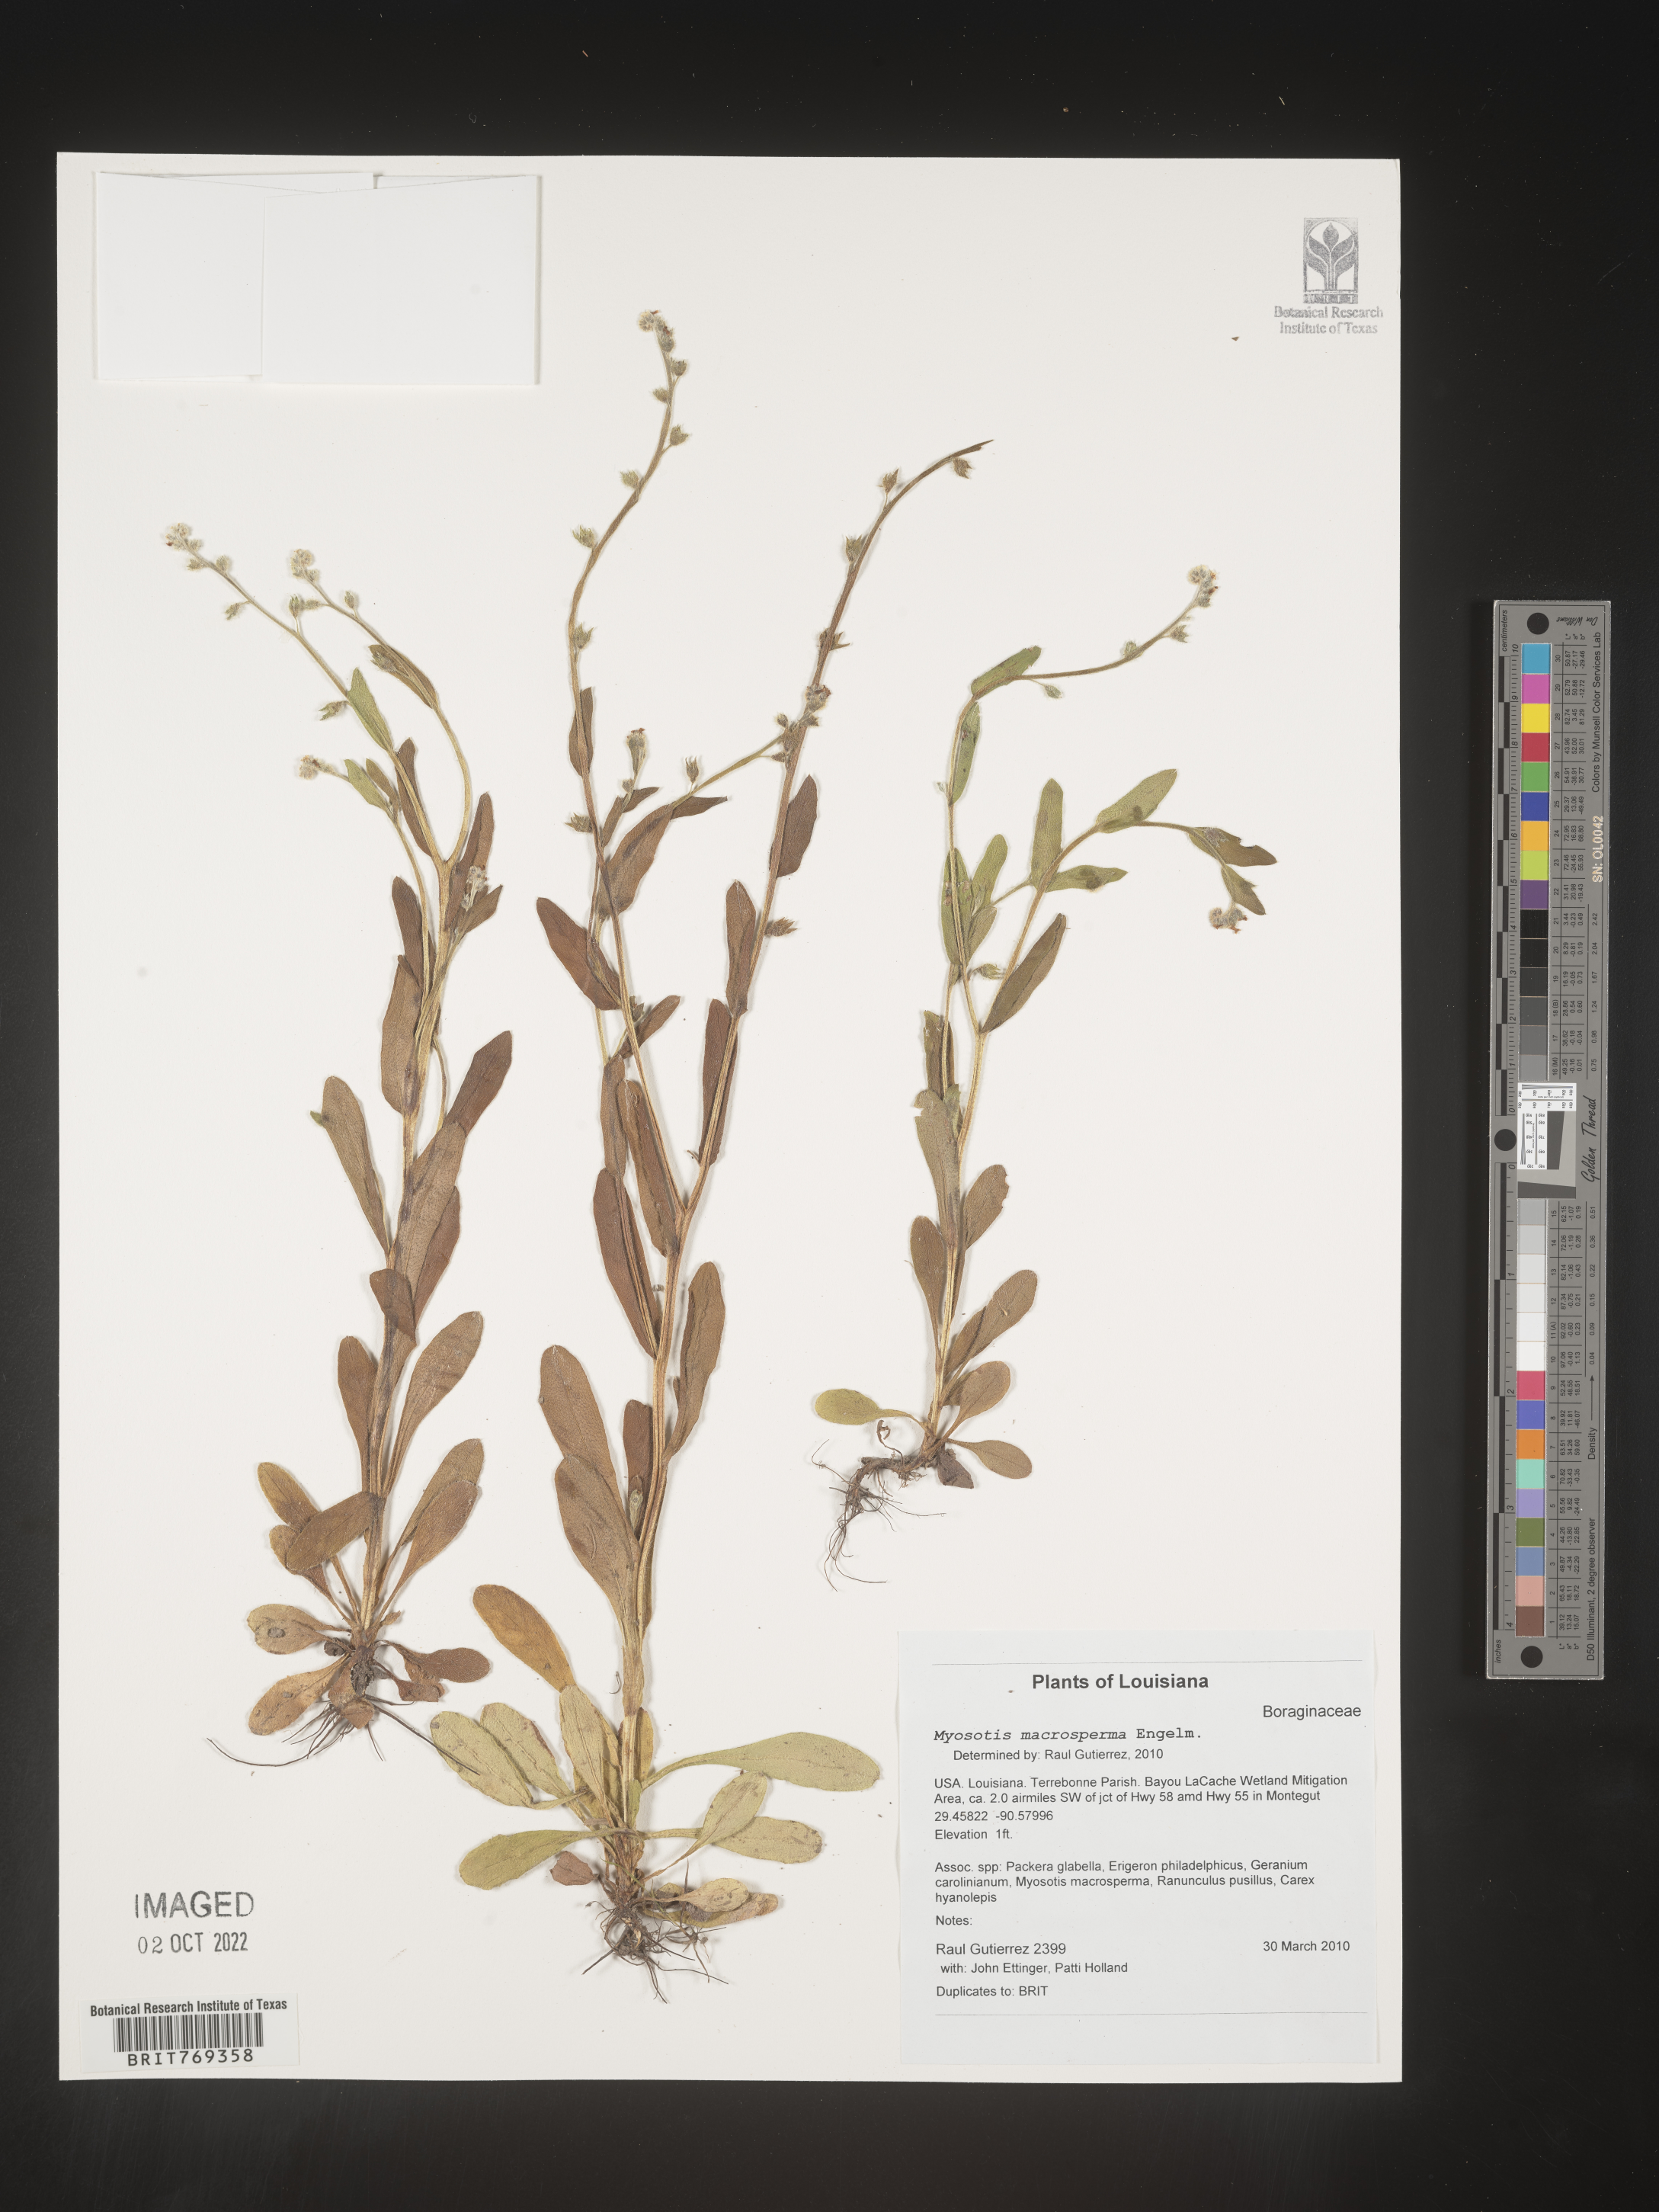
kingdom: Plantae
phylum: Tracheophyta
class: Magnoliopsida
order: Boraginales
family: Boraginaceae
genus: Myosotis
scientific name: Myosotis macrosperma
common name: Large-seed forget-me-not
